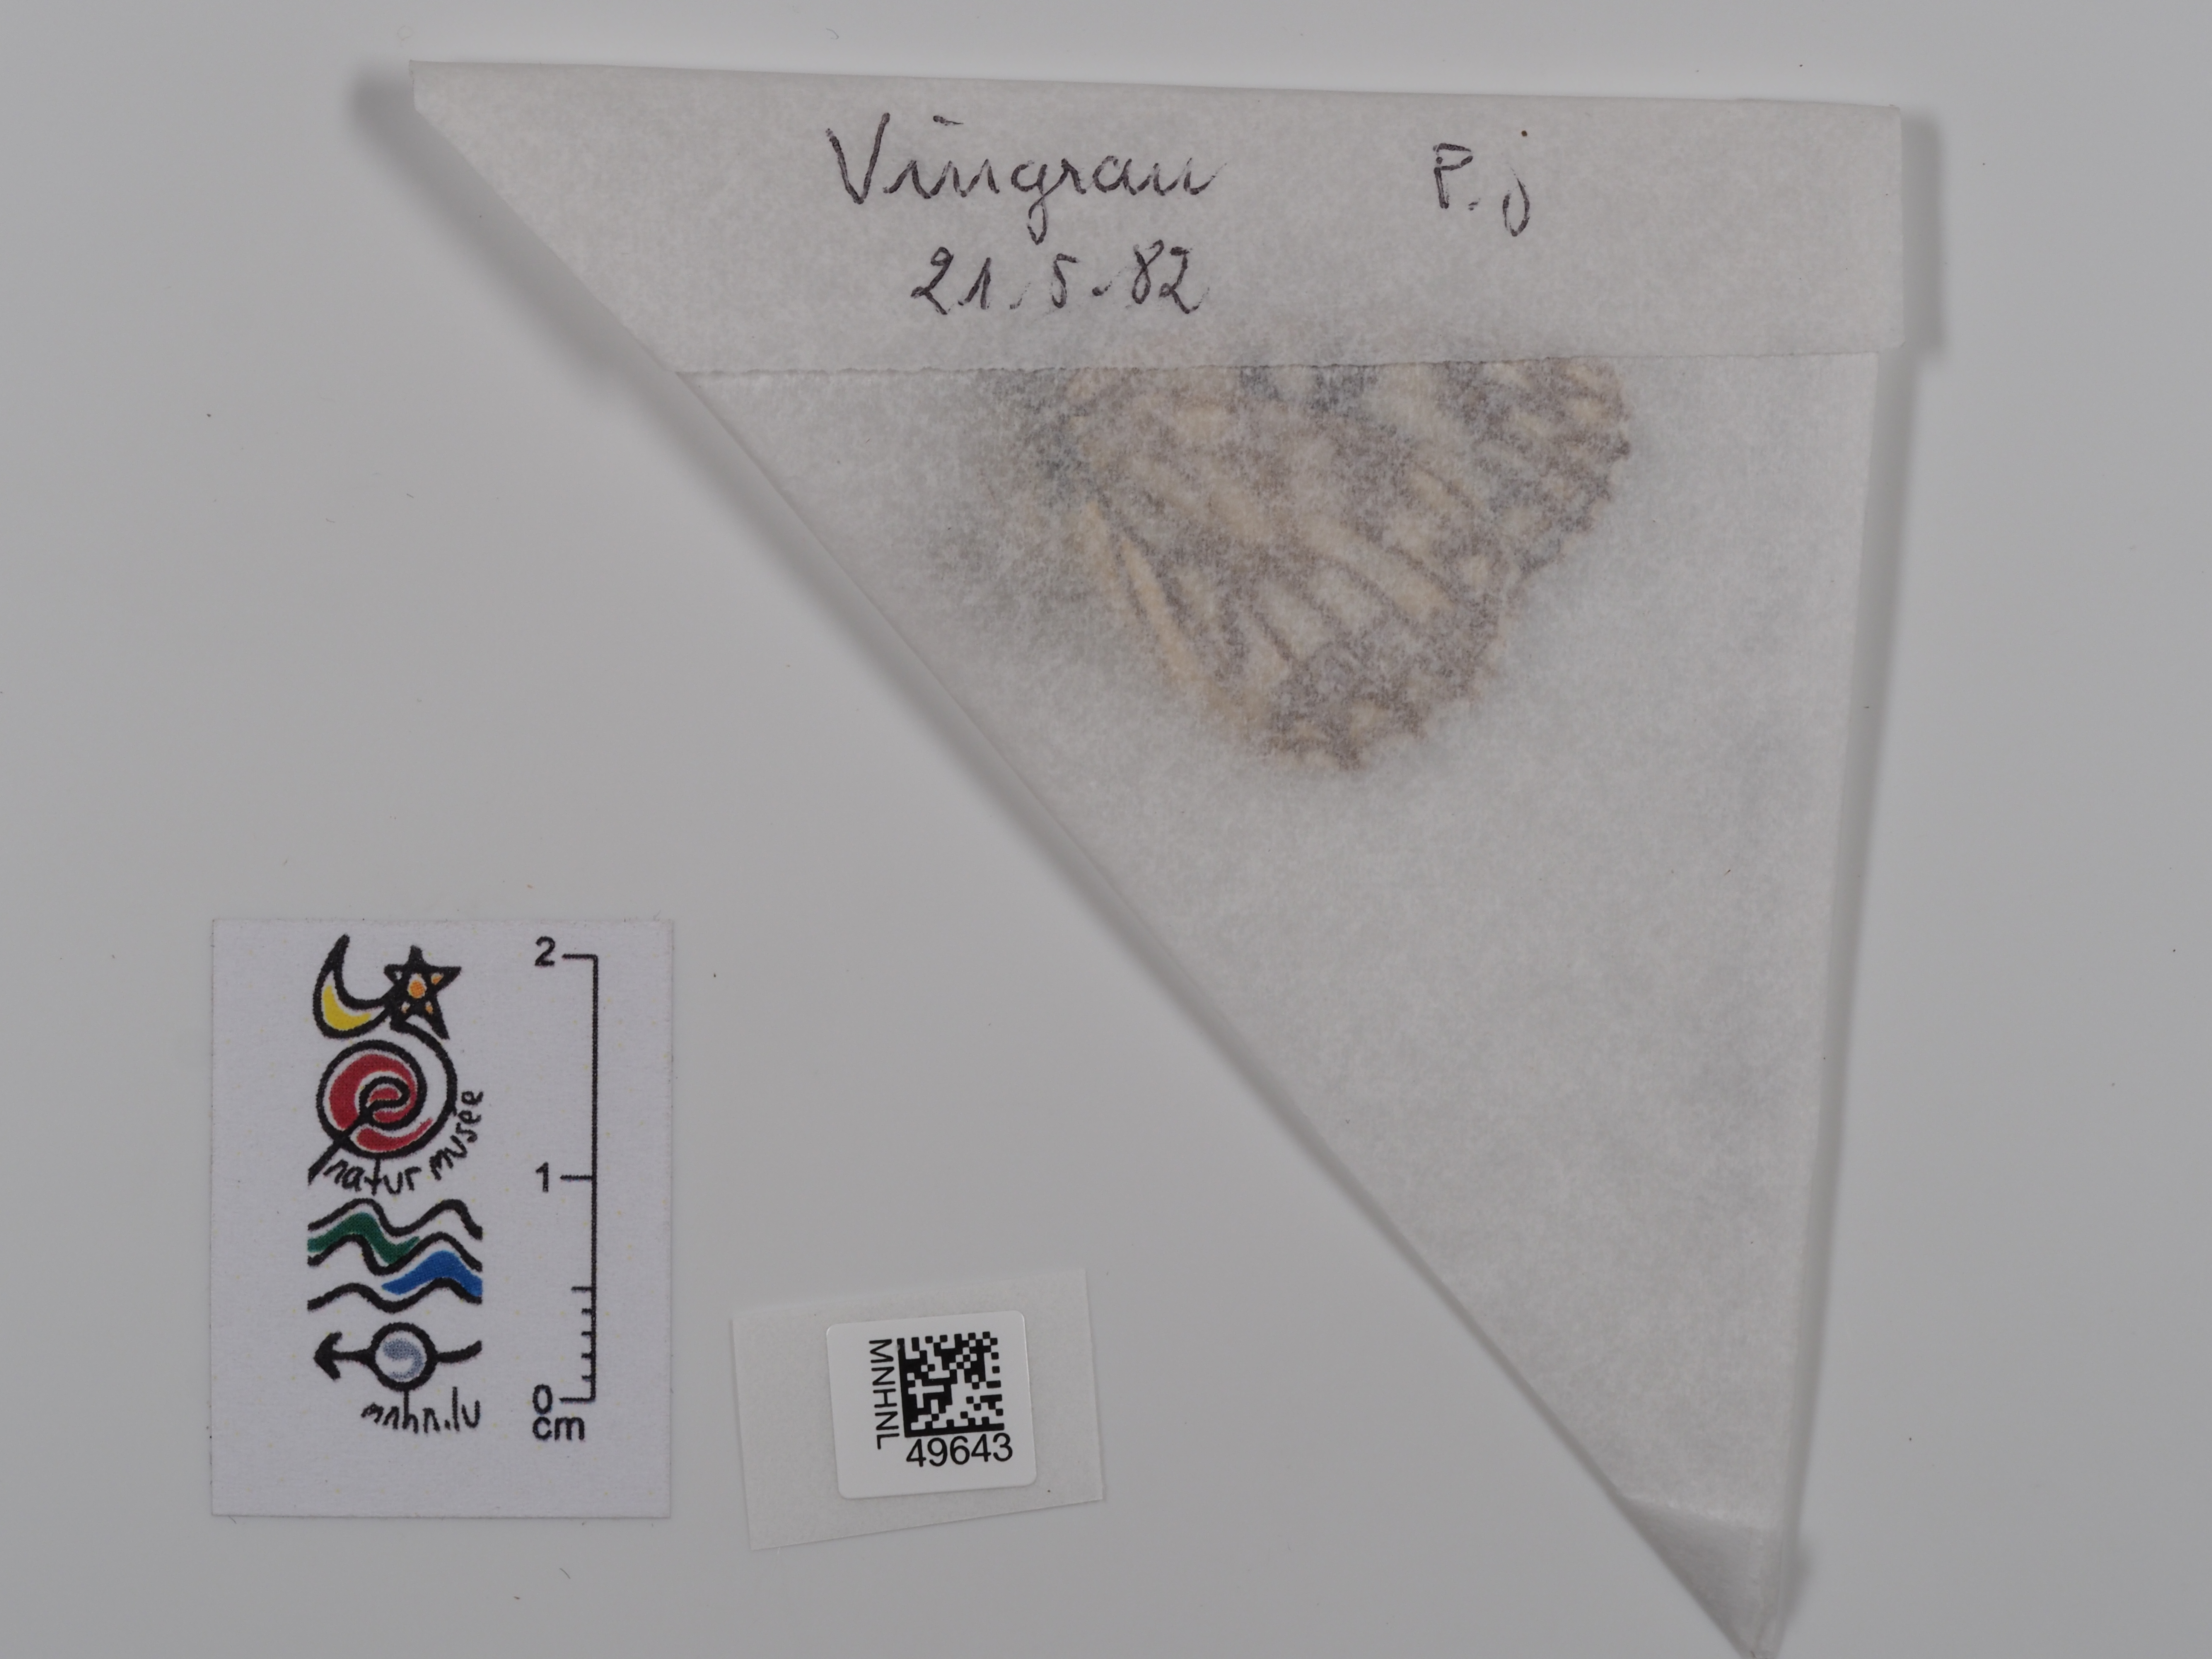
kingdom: Animalia
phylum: Arthropoda
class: Insecta
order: Lepidoptera
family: Nymphalidae
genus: Melanargia
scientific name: Melanargia occitanica
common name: Western marbled white
